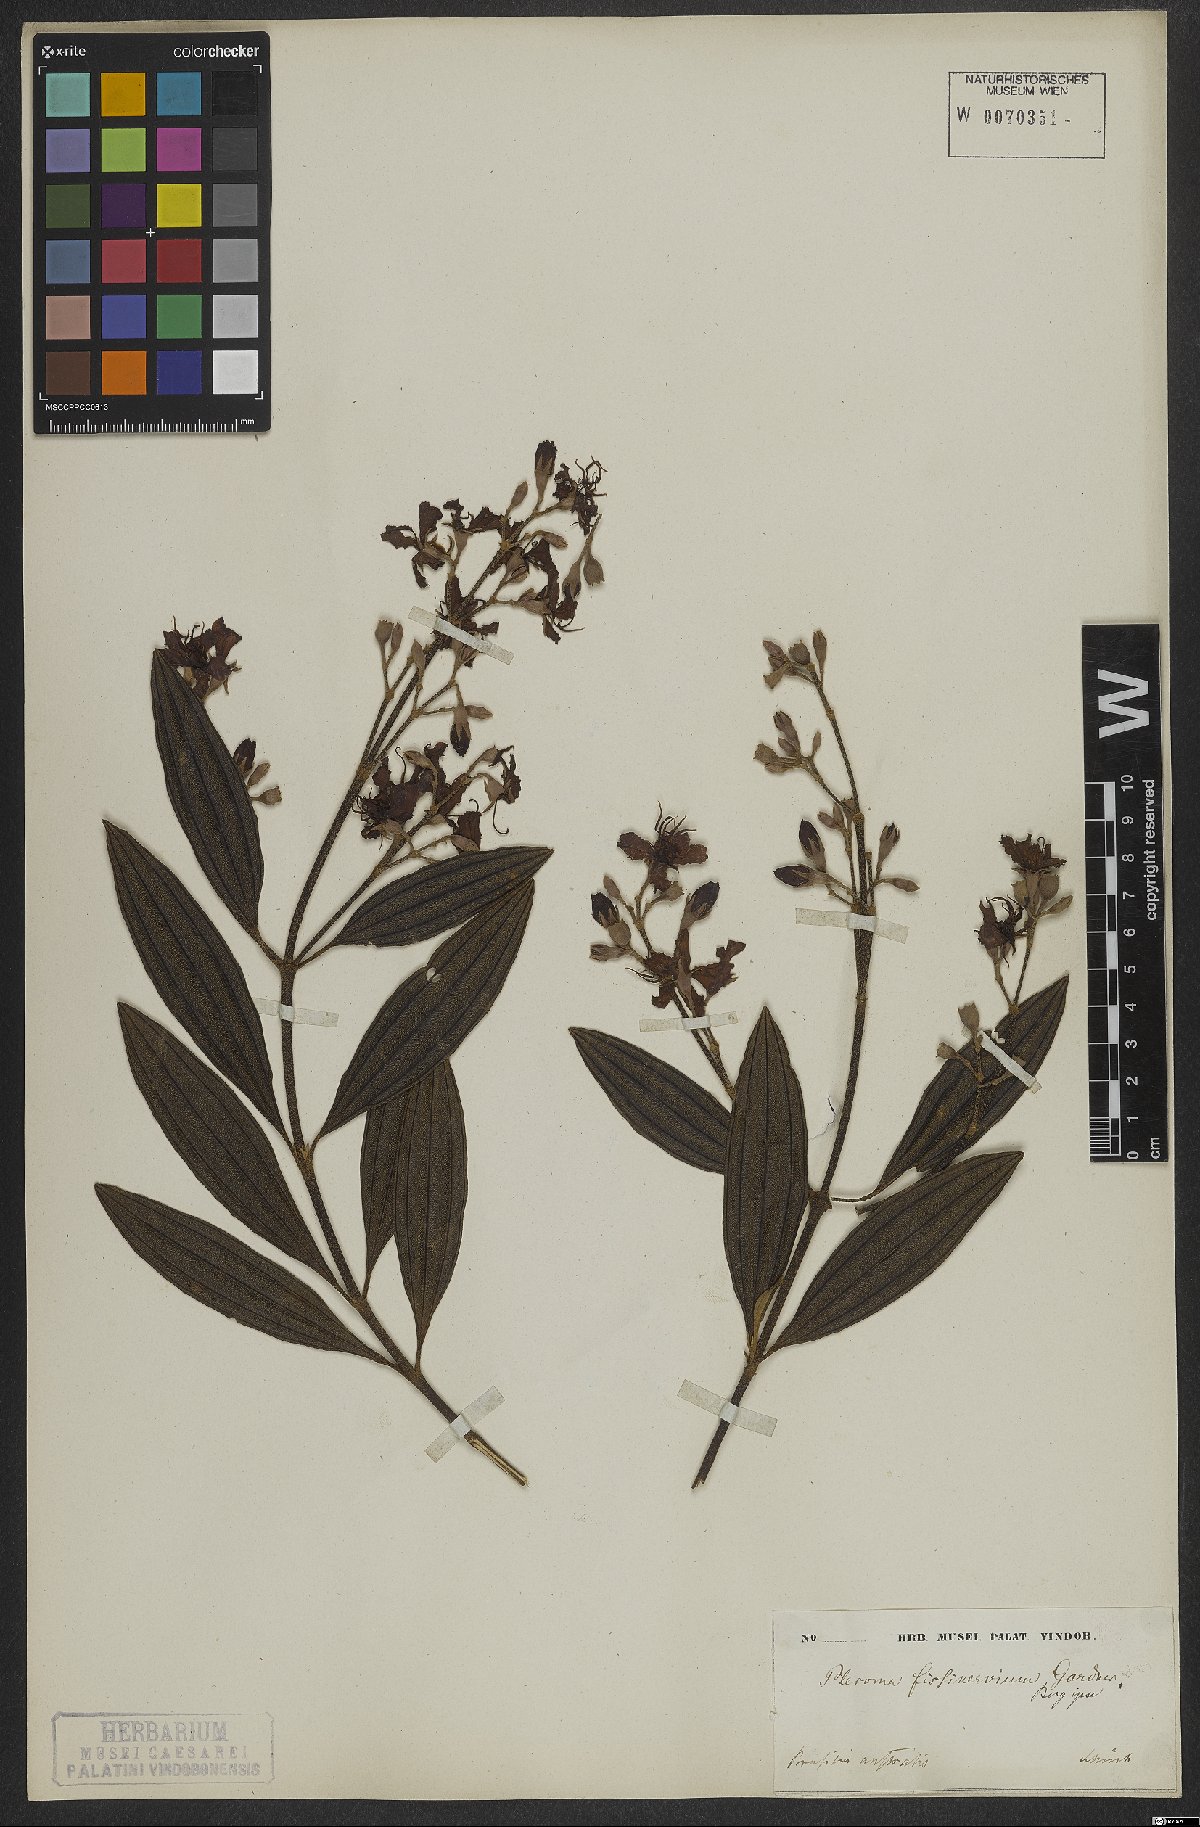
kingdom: Plantae
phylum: Tracheophyta
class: Magnoliopsida
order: Myrtales
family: Melastomataceae
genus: Pleroma
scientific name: Pleroma fissinervium
